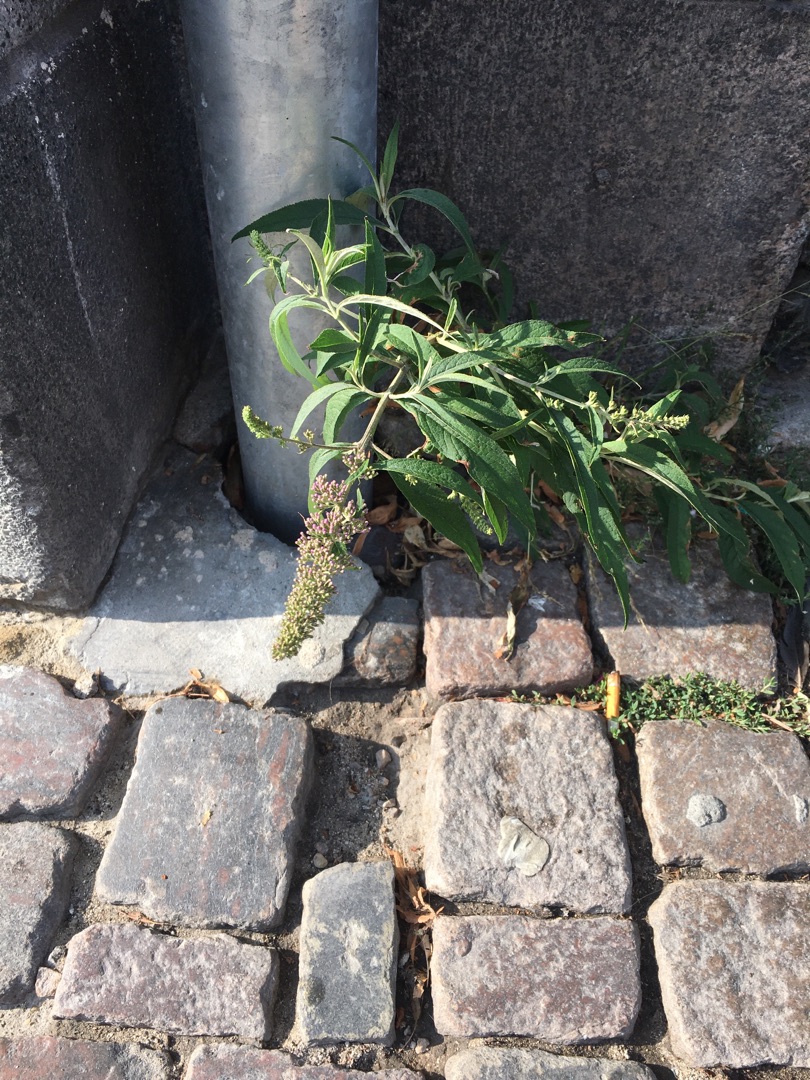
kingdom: Plantae
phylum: Tracheophyta
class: Magnoliopsida
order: Lamiales
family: Scrophulariaceae
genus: Buddleja
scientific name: Buddleja davidii
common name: Sommerfuglebusk
